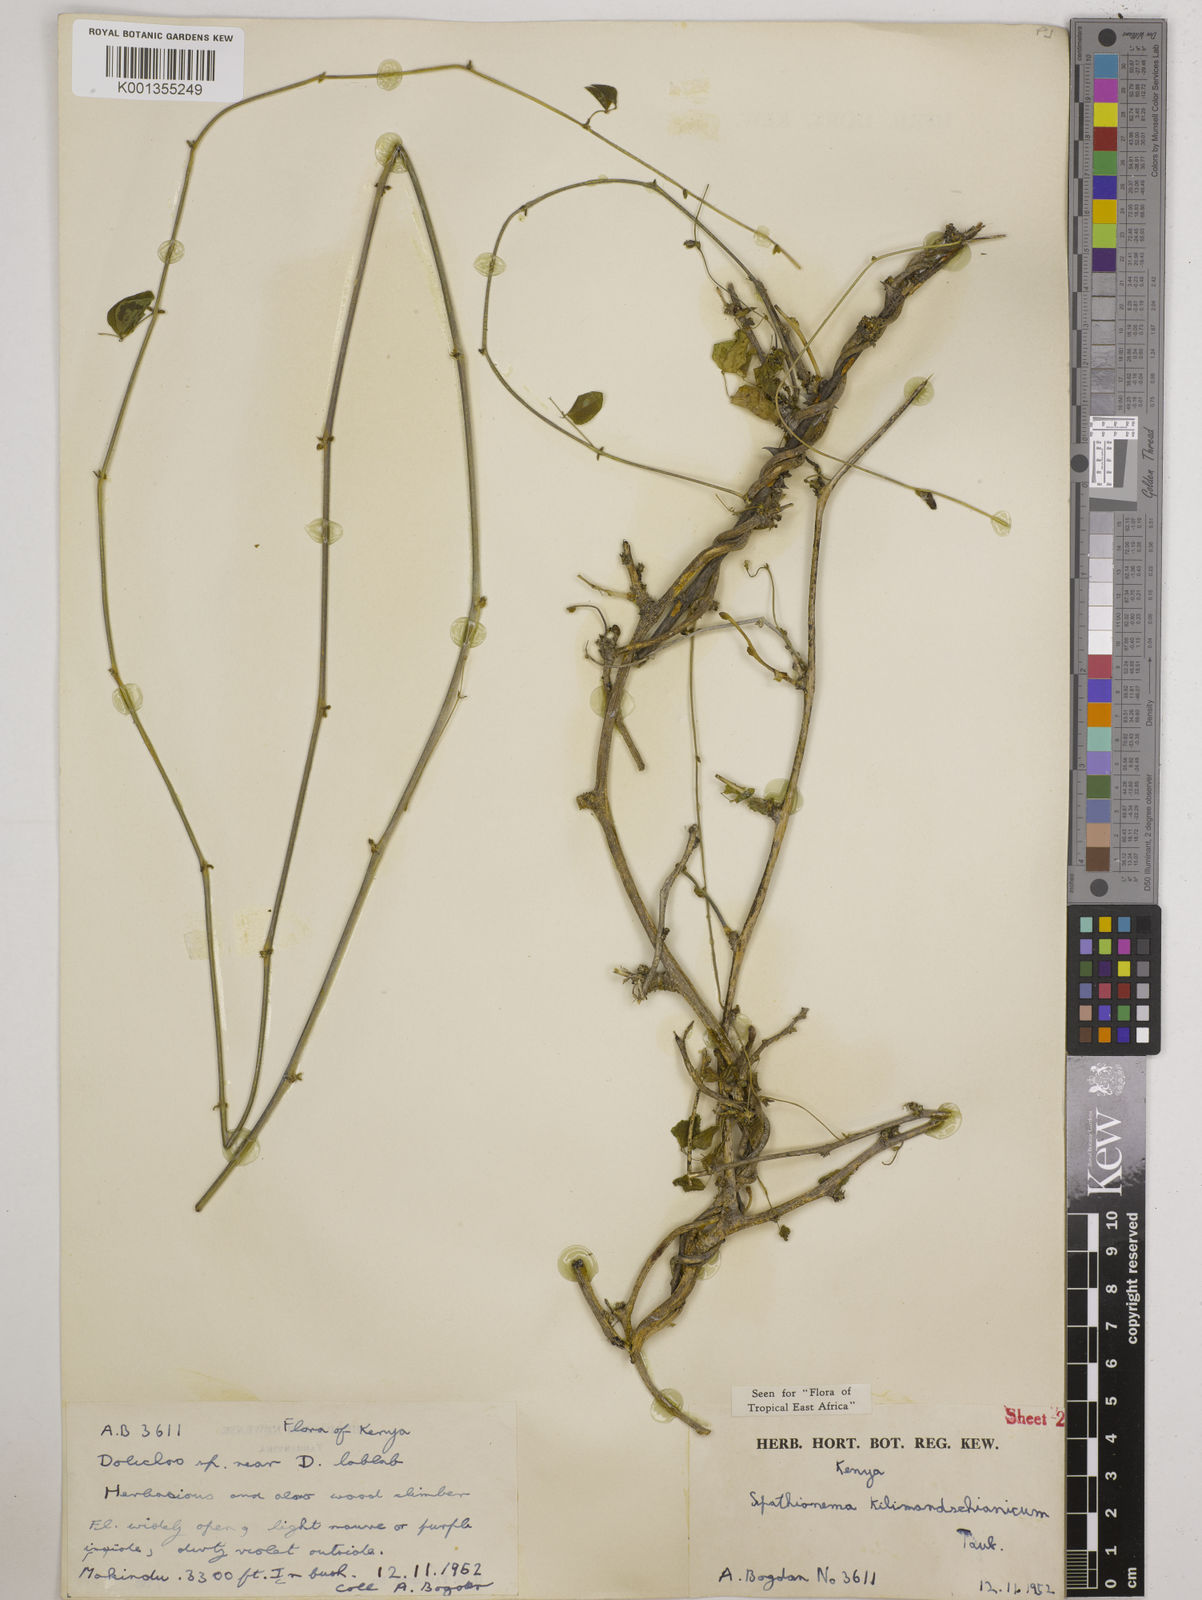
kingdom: Plantae
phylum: Tracheophyta
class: Magnoliopsida
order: Fabales
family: Fabaceae
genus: Spathionema
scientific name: Spathionema kilimandscharicum
